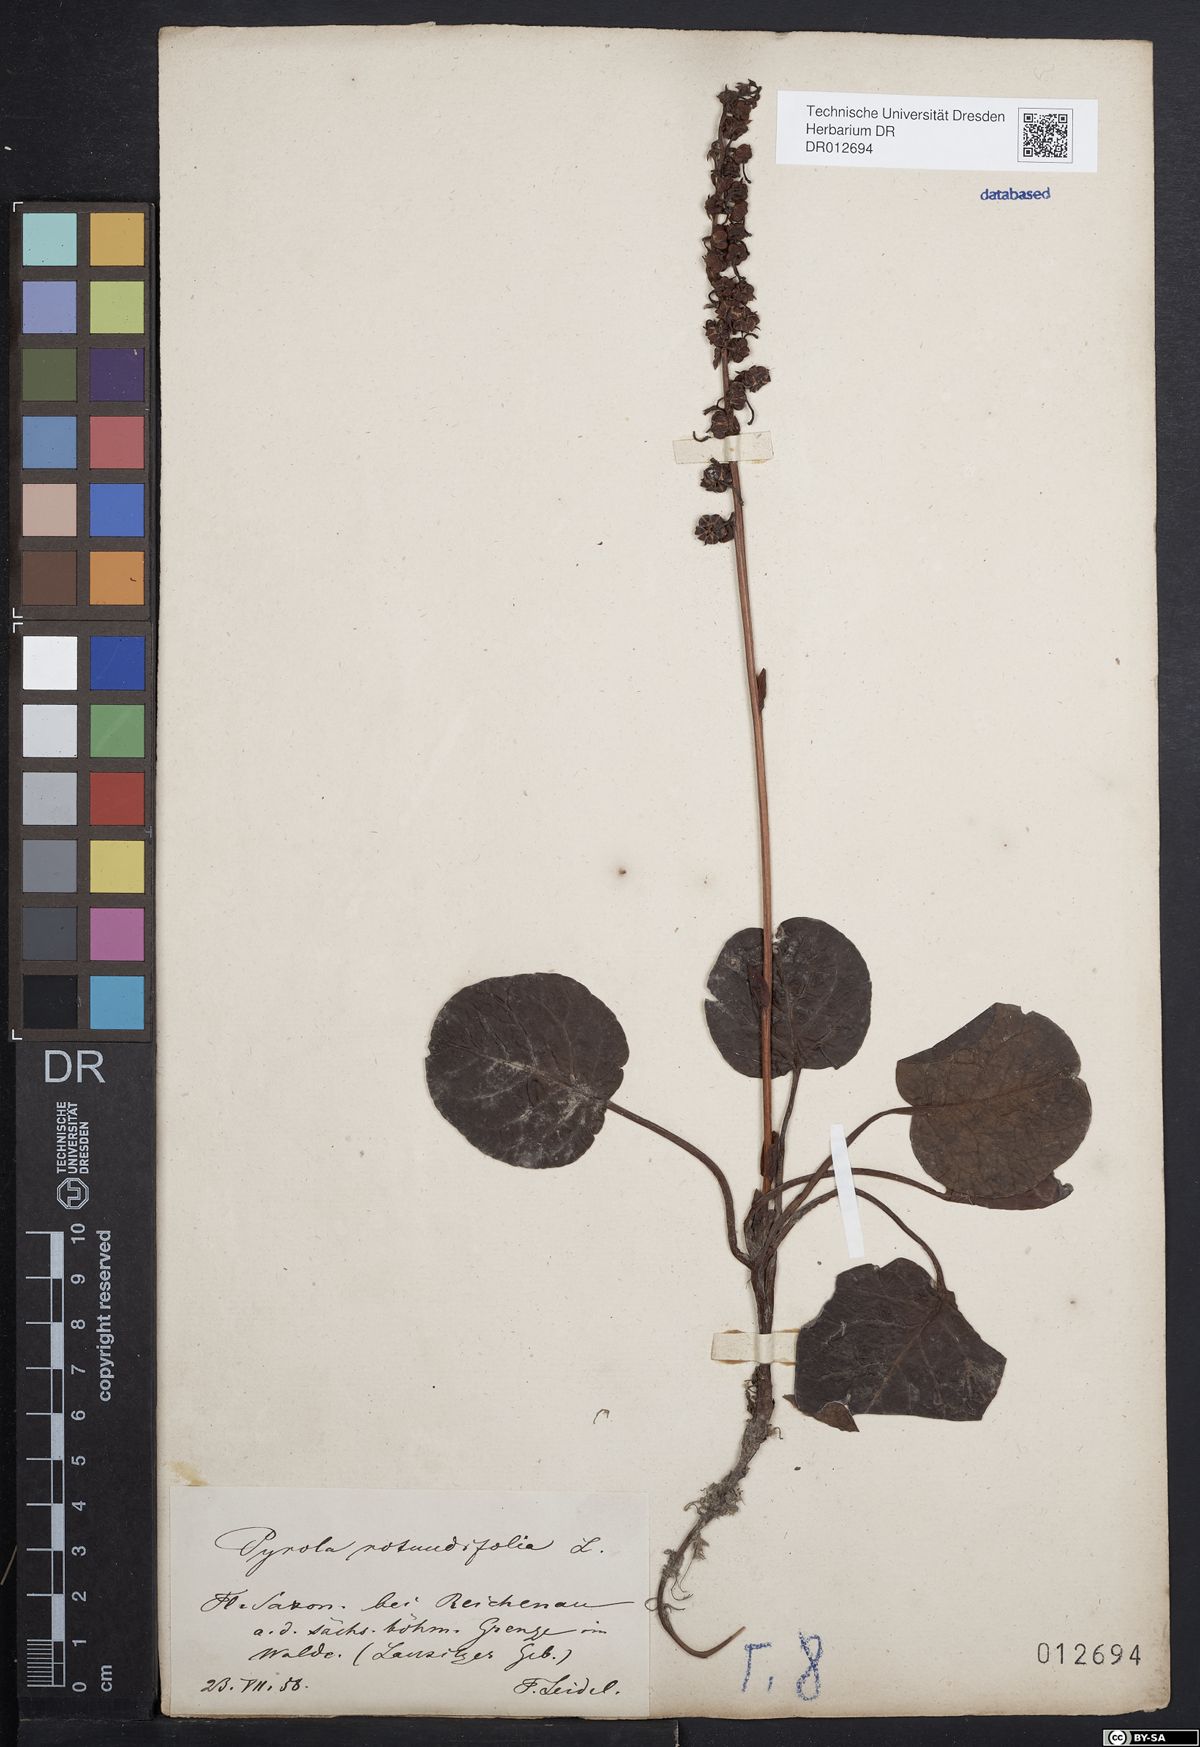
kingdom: Plantae
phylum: Tracheophyta
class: Magnoliopsida
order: Ericales
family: Ericaceae
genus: Pyrola
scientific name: Pyrola rotundifolia
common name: Round-leaved wintergreen
